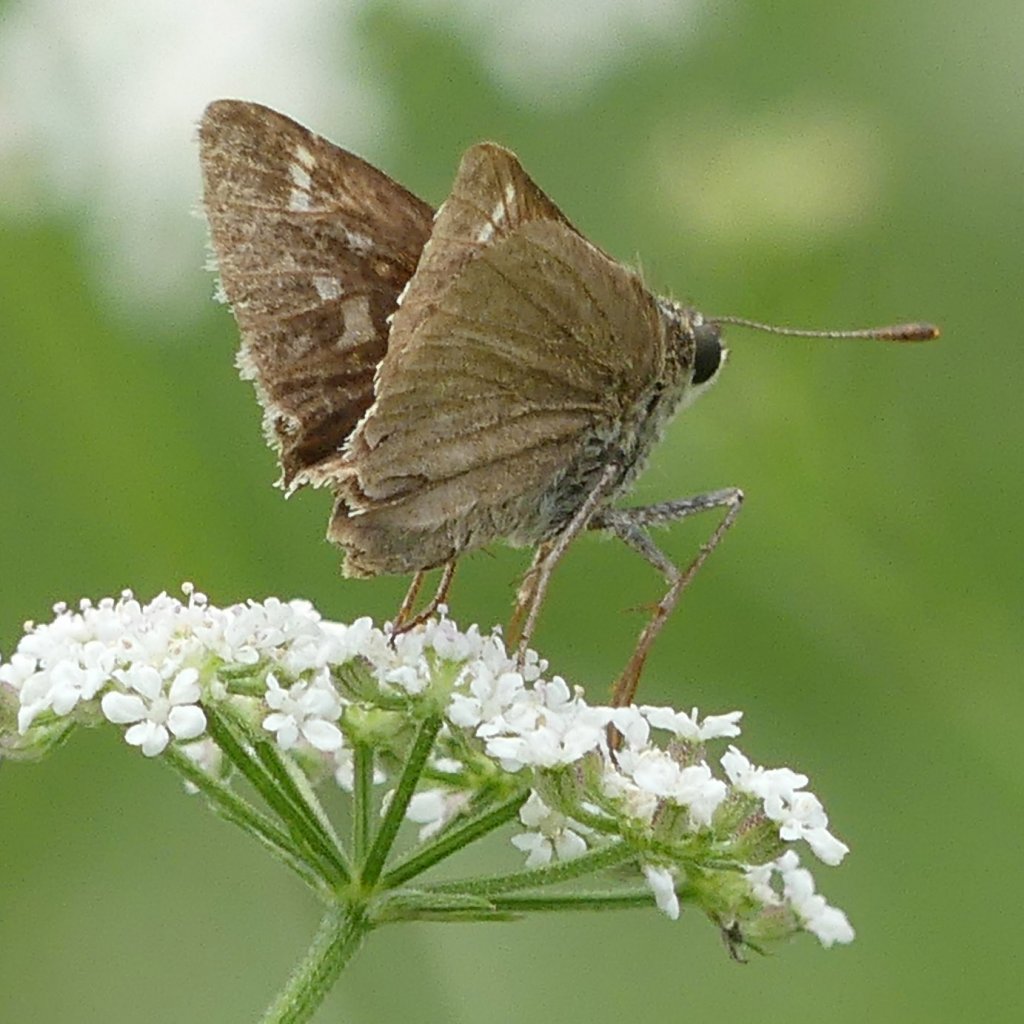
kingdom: Animalia
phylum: Arthropoda
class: Insecta
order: Lepidoptera
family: Hesperiidae
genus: Vernia
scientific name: Vernia verna
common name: Little Glassywing
